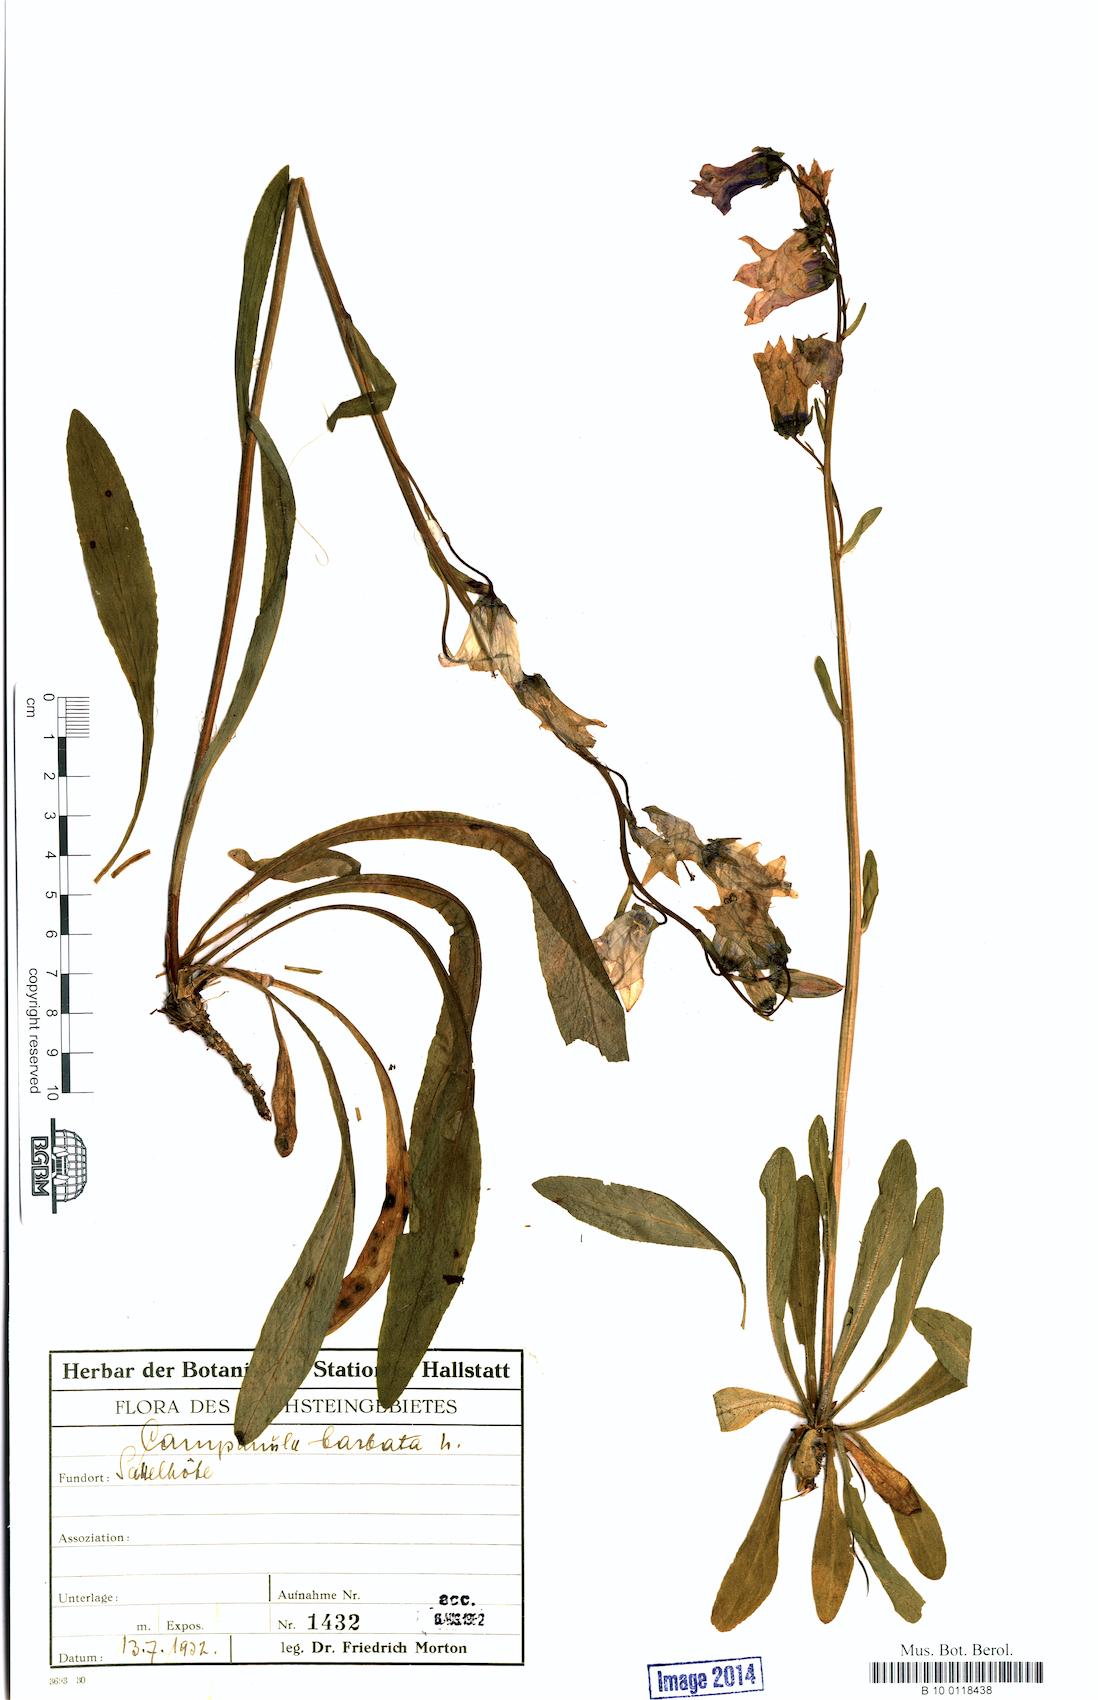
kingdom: Plantae
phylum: Tracheophyta
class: Magnoliopsida
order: Asterales
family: Campanulaceae
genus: Campanula
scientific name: Campanula barbata
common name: Bearded bellflower
